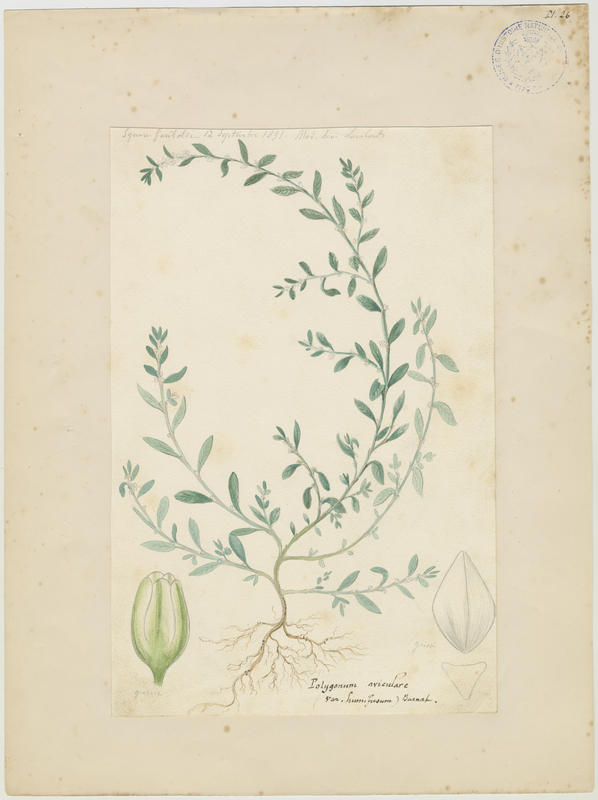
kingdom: Plantae
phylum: Tracheophyta
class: Magnoliopsida
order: Caryophyllales
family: Polygonaceae
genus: Polygonum
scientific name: Polygonum aviculare
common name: Prostrate knotweed
